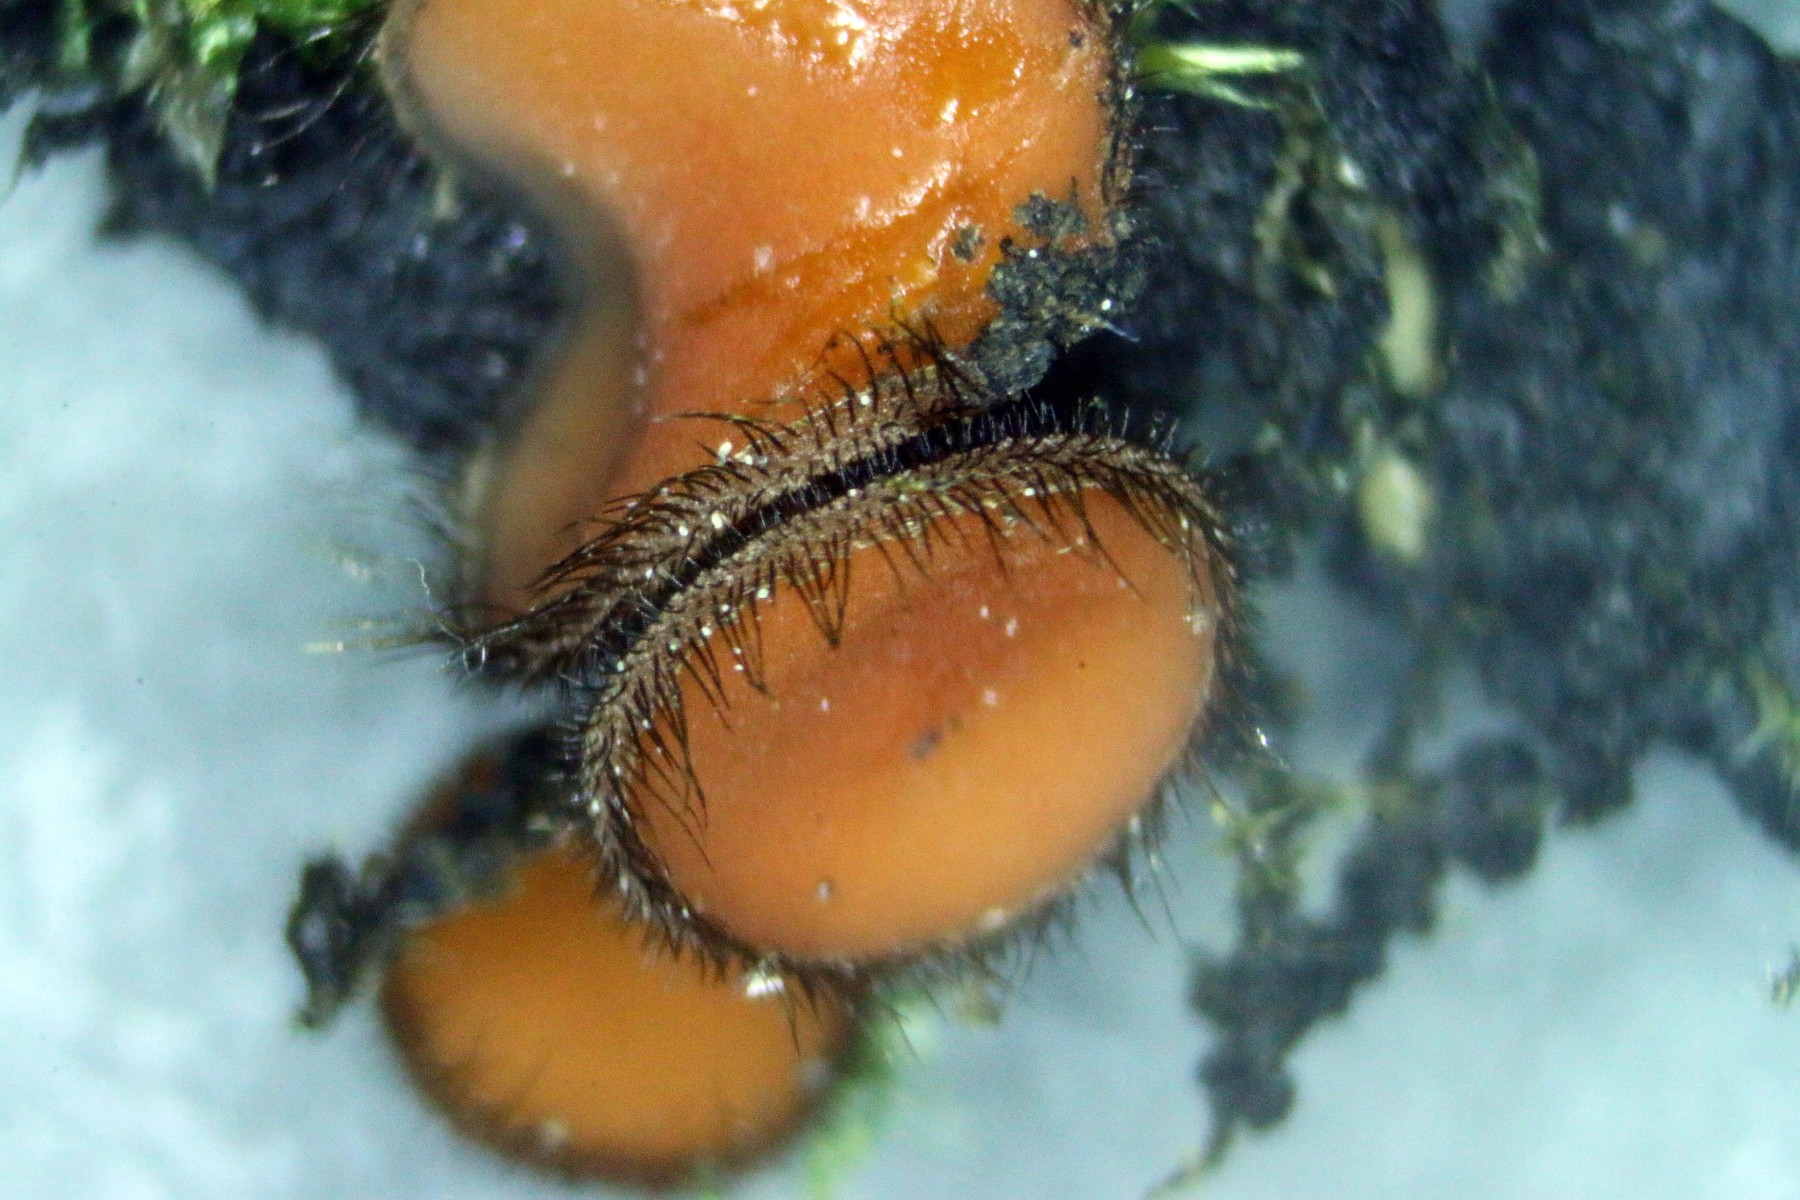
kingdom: Fungi
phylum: Ascomycota
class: Pezizomycetes
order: Pezizales
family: Pyronemataceae
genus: Scutellinia
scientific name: Scutellinia scutellata
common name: frynset skjoldbæger
